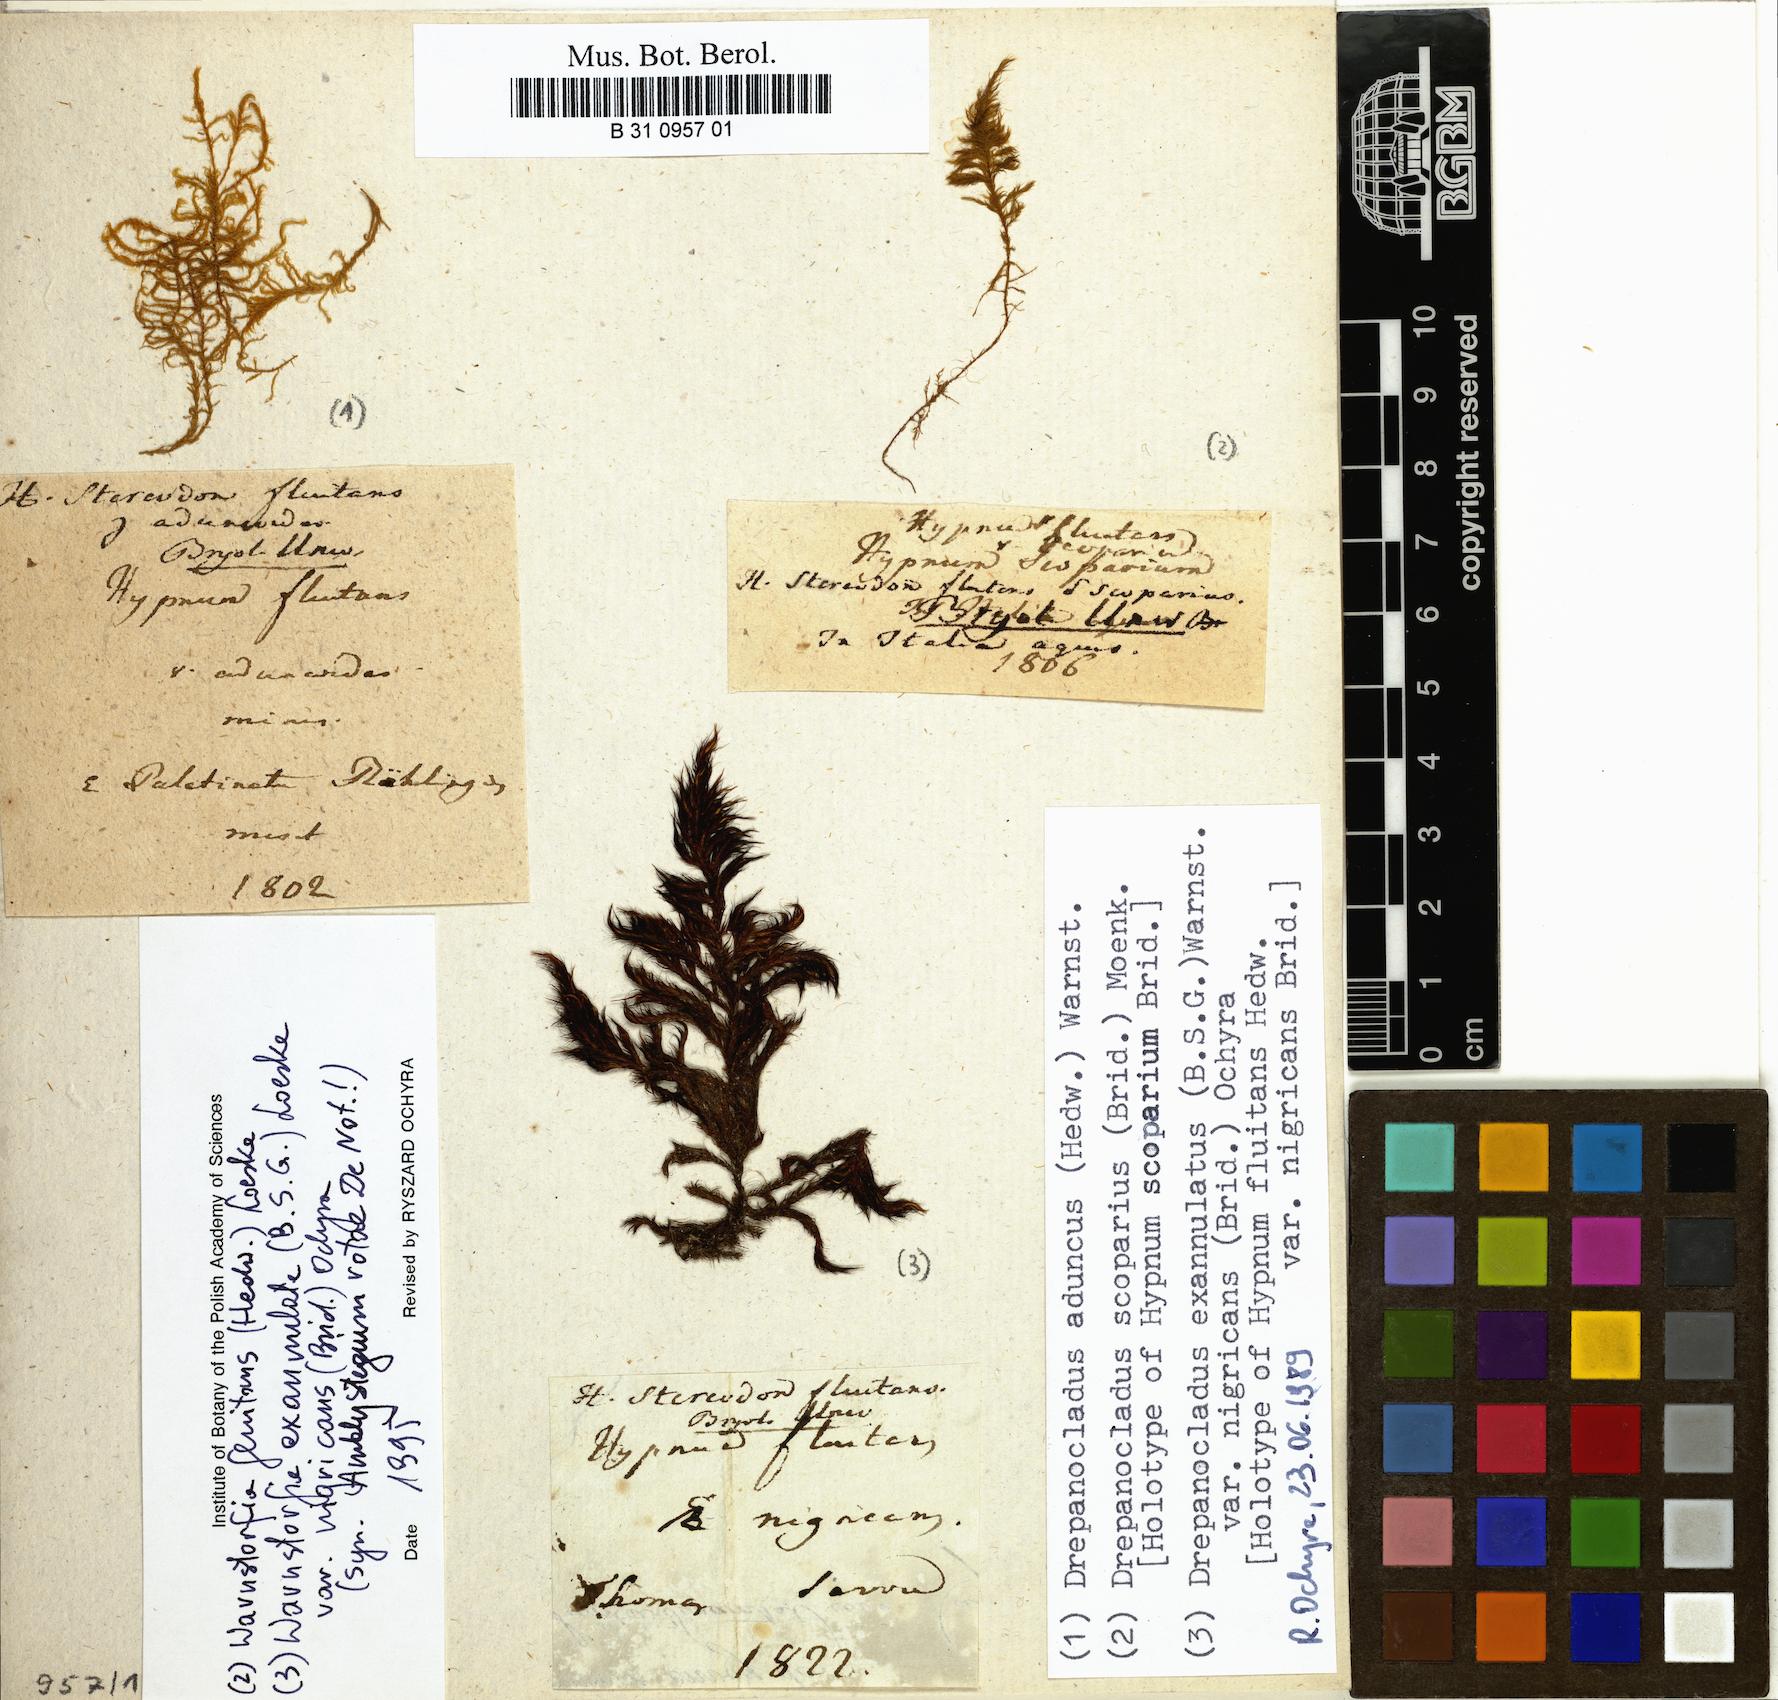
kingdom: Plantae
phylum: Bryophyta
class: Bryopsida
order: Hypnales
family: Calliergonaceae
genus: Warnstorfia
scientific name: Warnstorfia fluitans
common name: Floating hook moss
